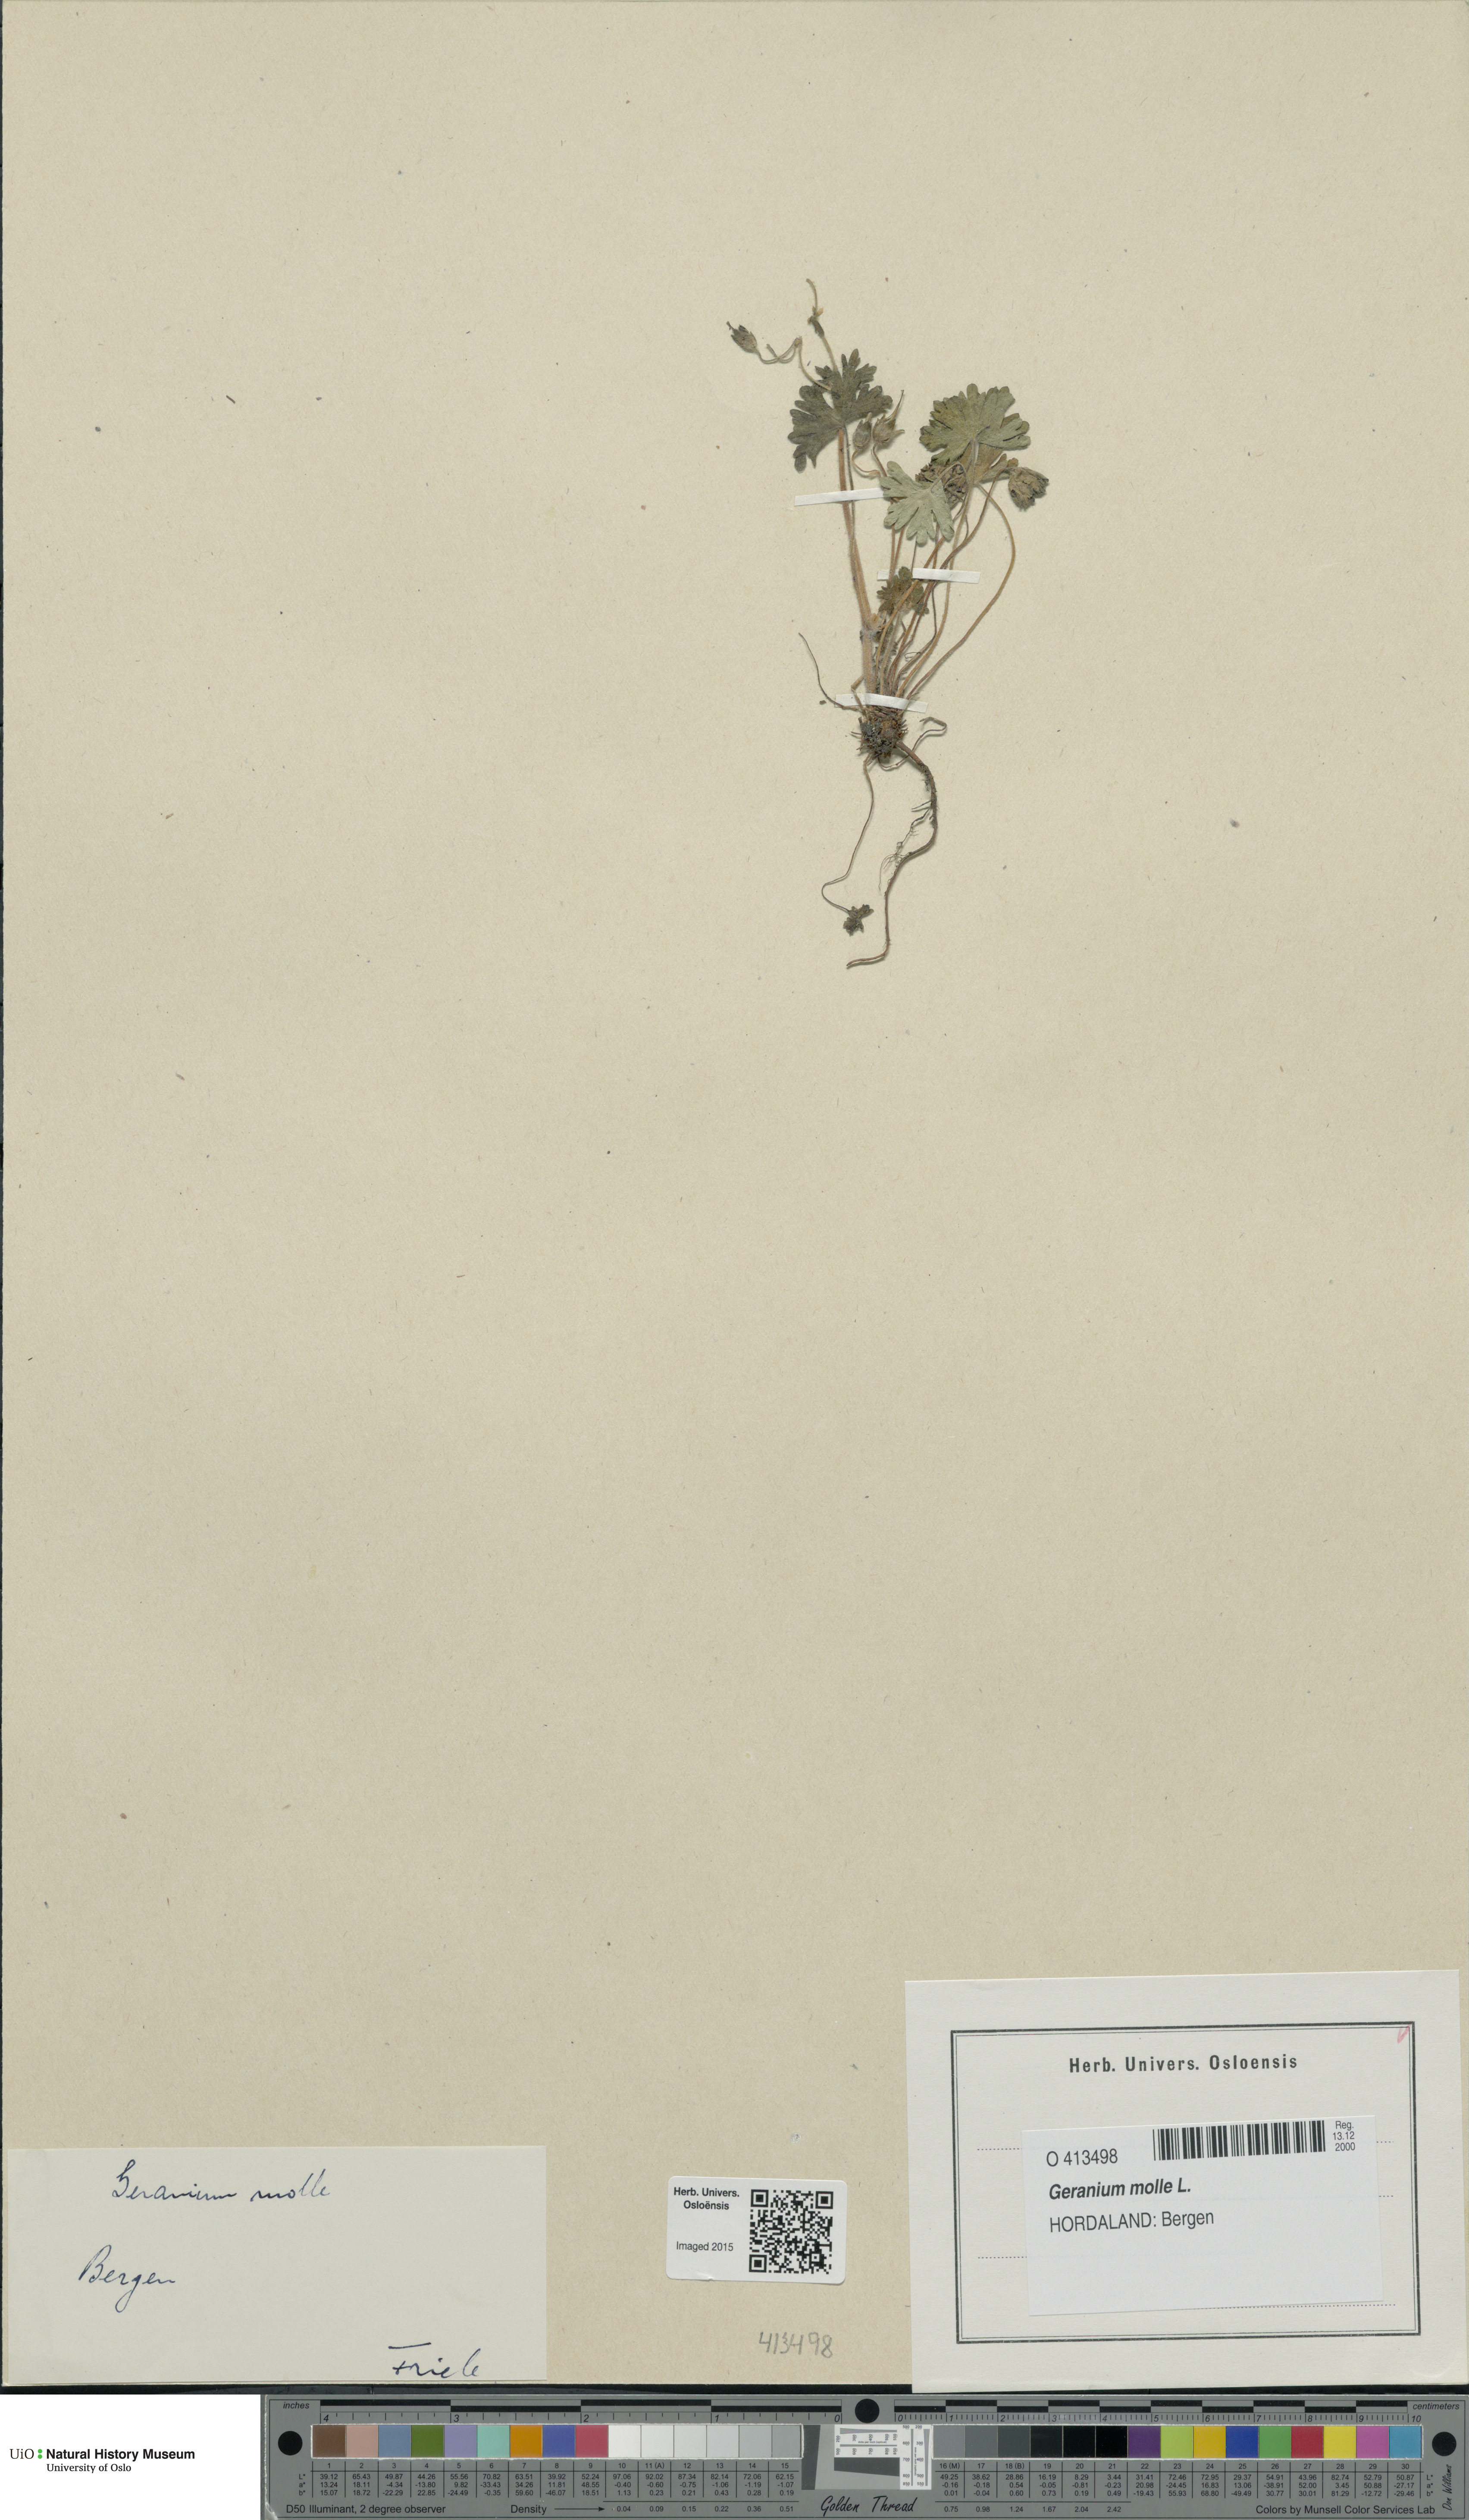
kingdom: Plantae
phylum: Tracheophyta
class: Magnoliopsida
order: Geraniales
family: Geraniaceae
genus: Geranium
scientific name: Geranium molle
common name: Dove's-foot crane's-bill
